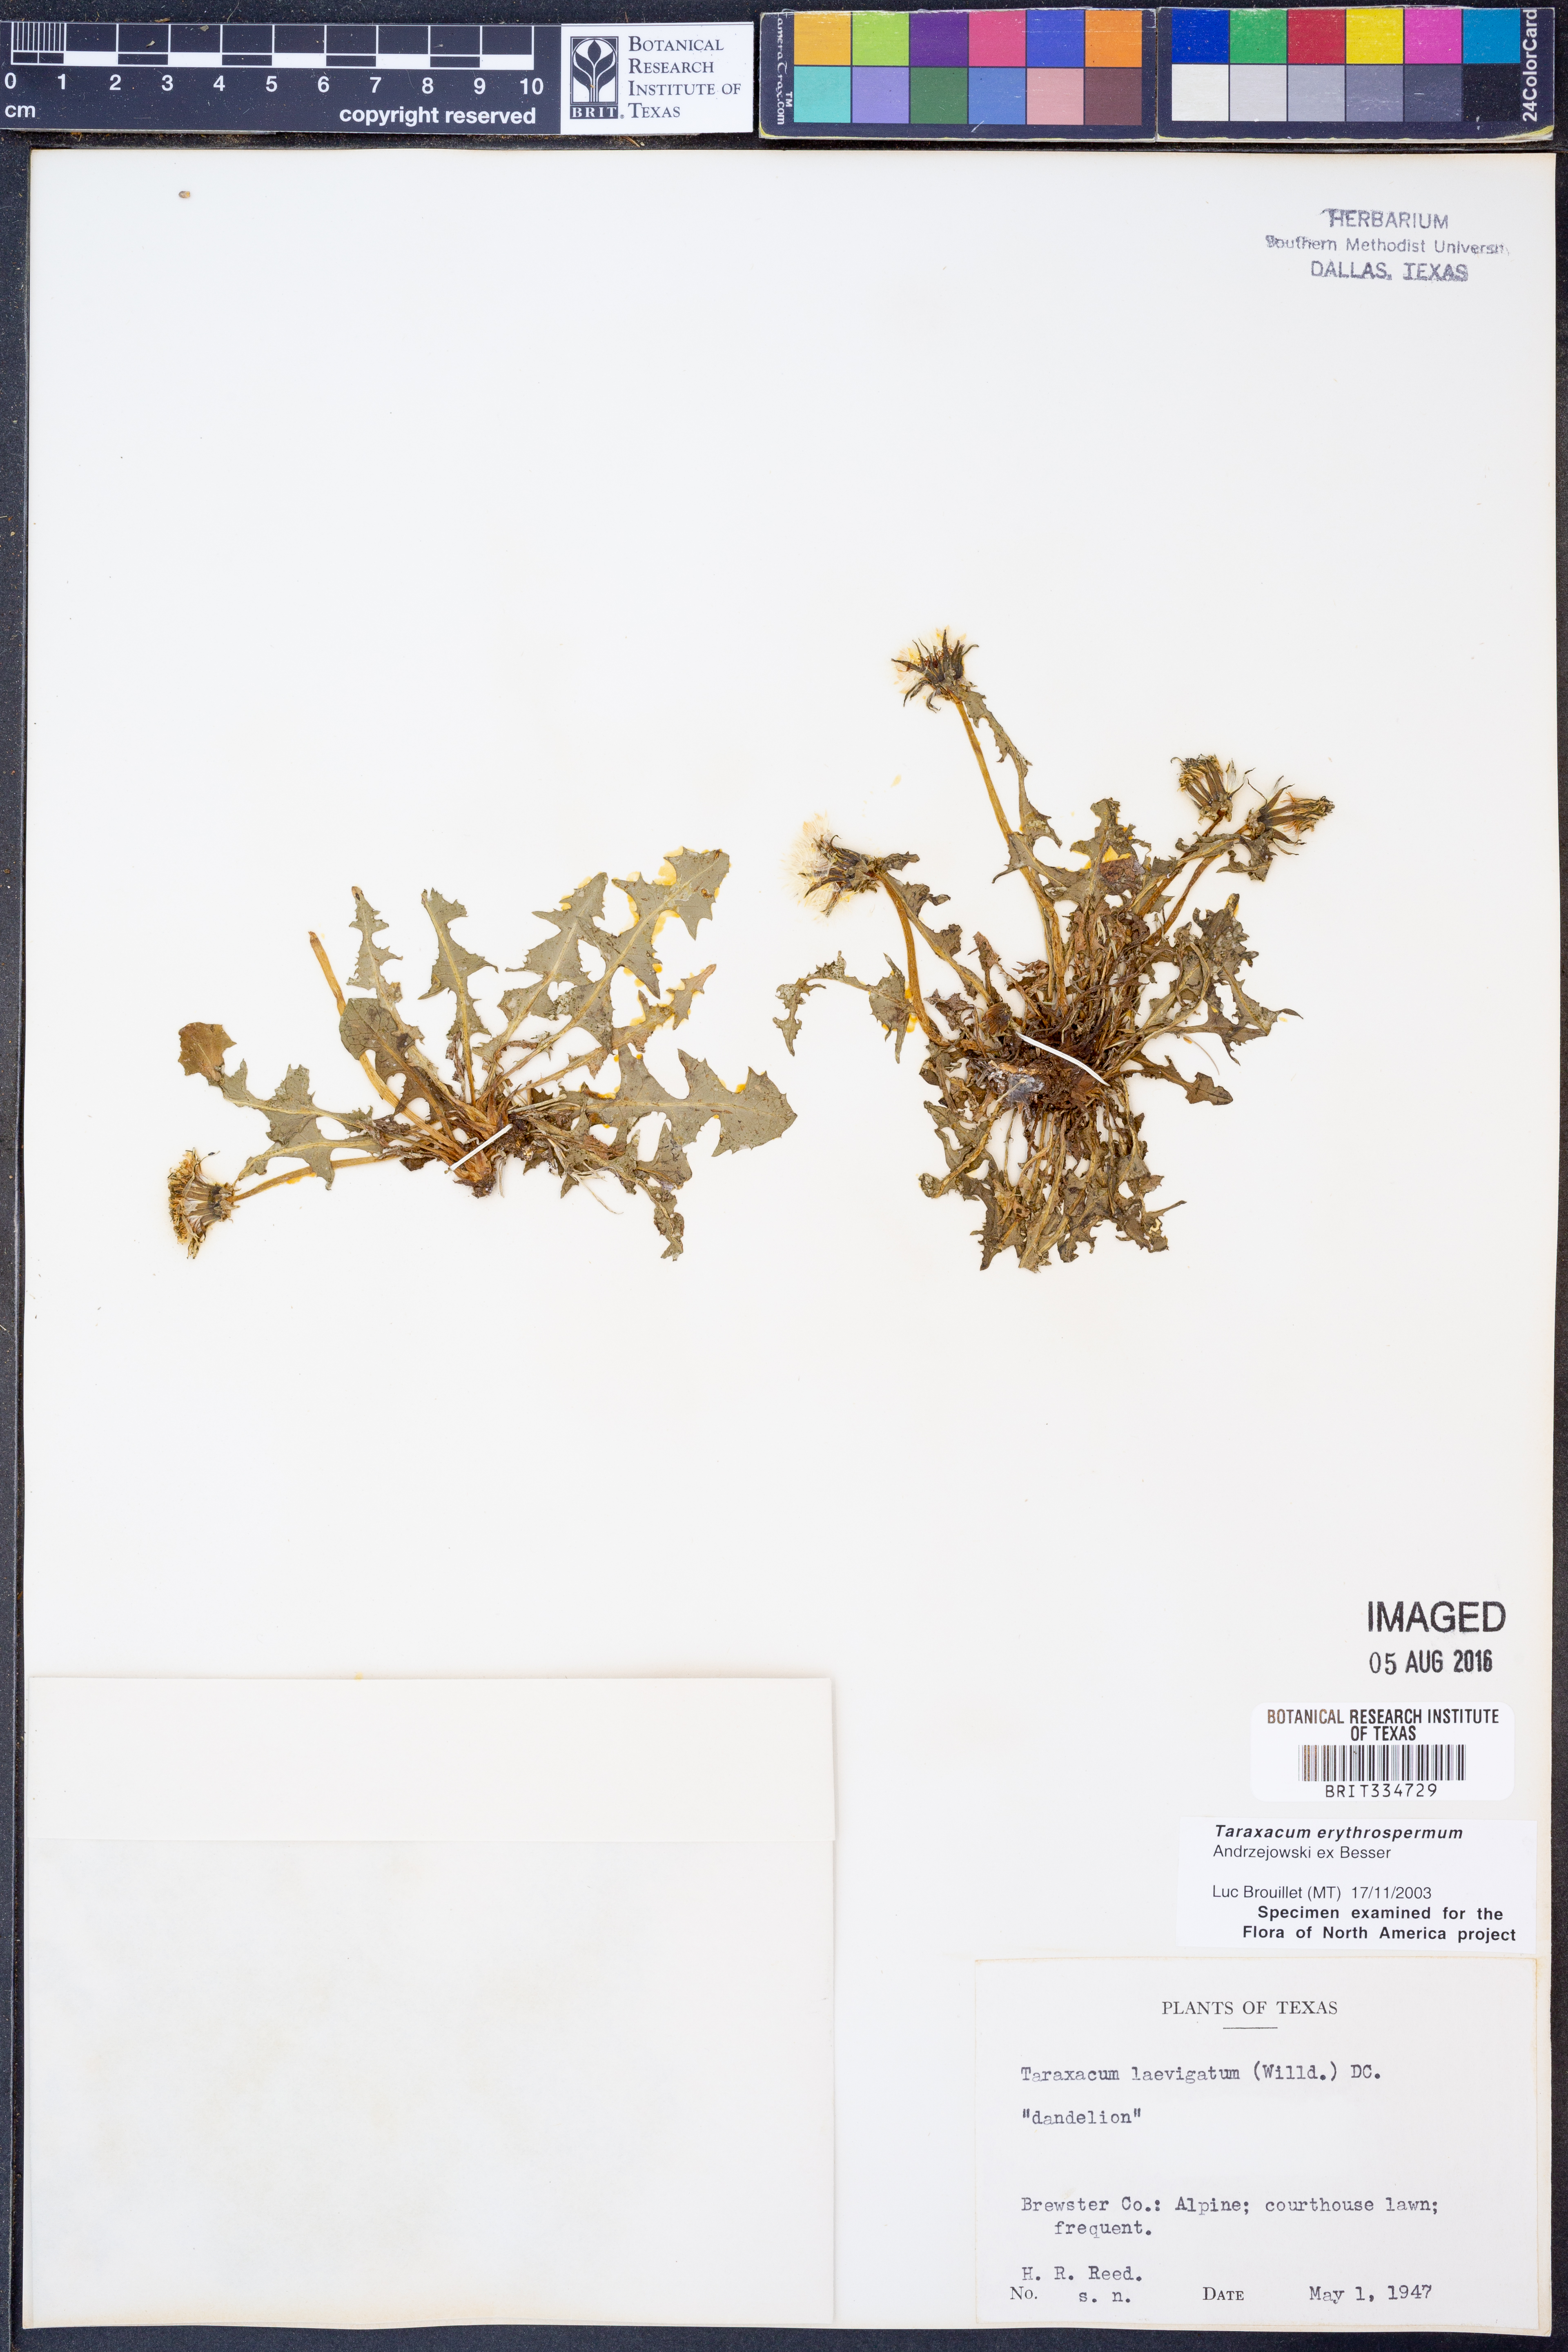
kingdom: Plantae
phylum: Tracheophyta
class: Magnoliopsida
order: Asterales
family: Asteraceae
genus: Taraxacum
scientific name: Taraxacum erythrospermum
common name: Rock dandelion
